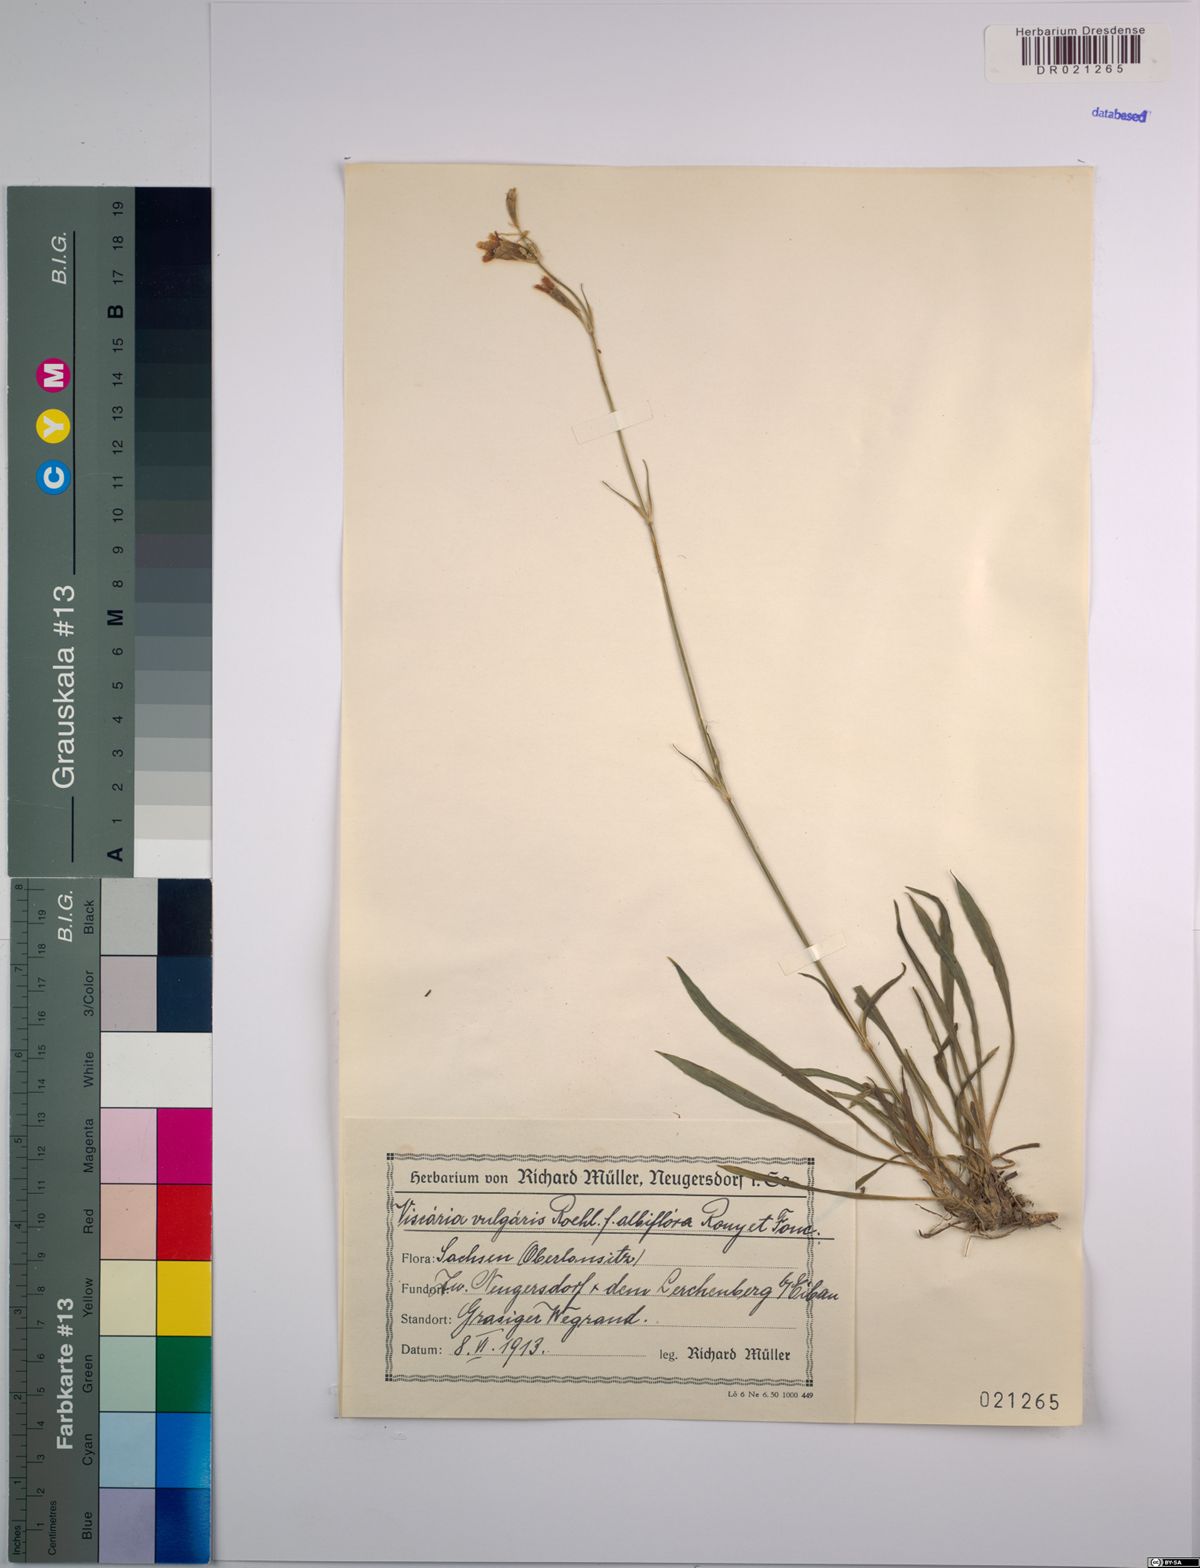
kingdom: Plantae
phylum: Tracheophyta
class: Magnoliopsida
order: Caryophyllales
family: Caryophyllaceae
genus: Viscaria
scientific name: Viscaria vulgaris
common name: Clammy campion
